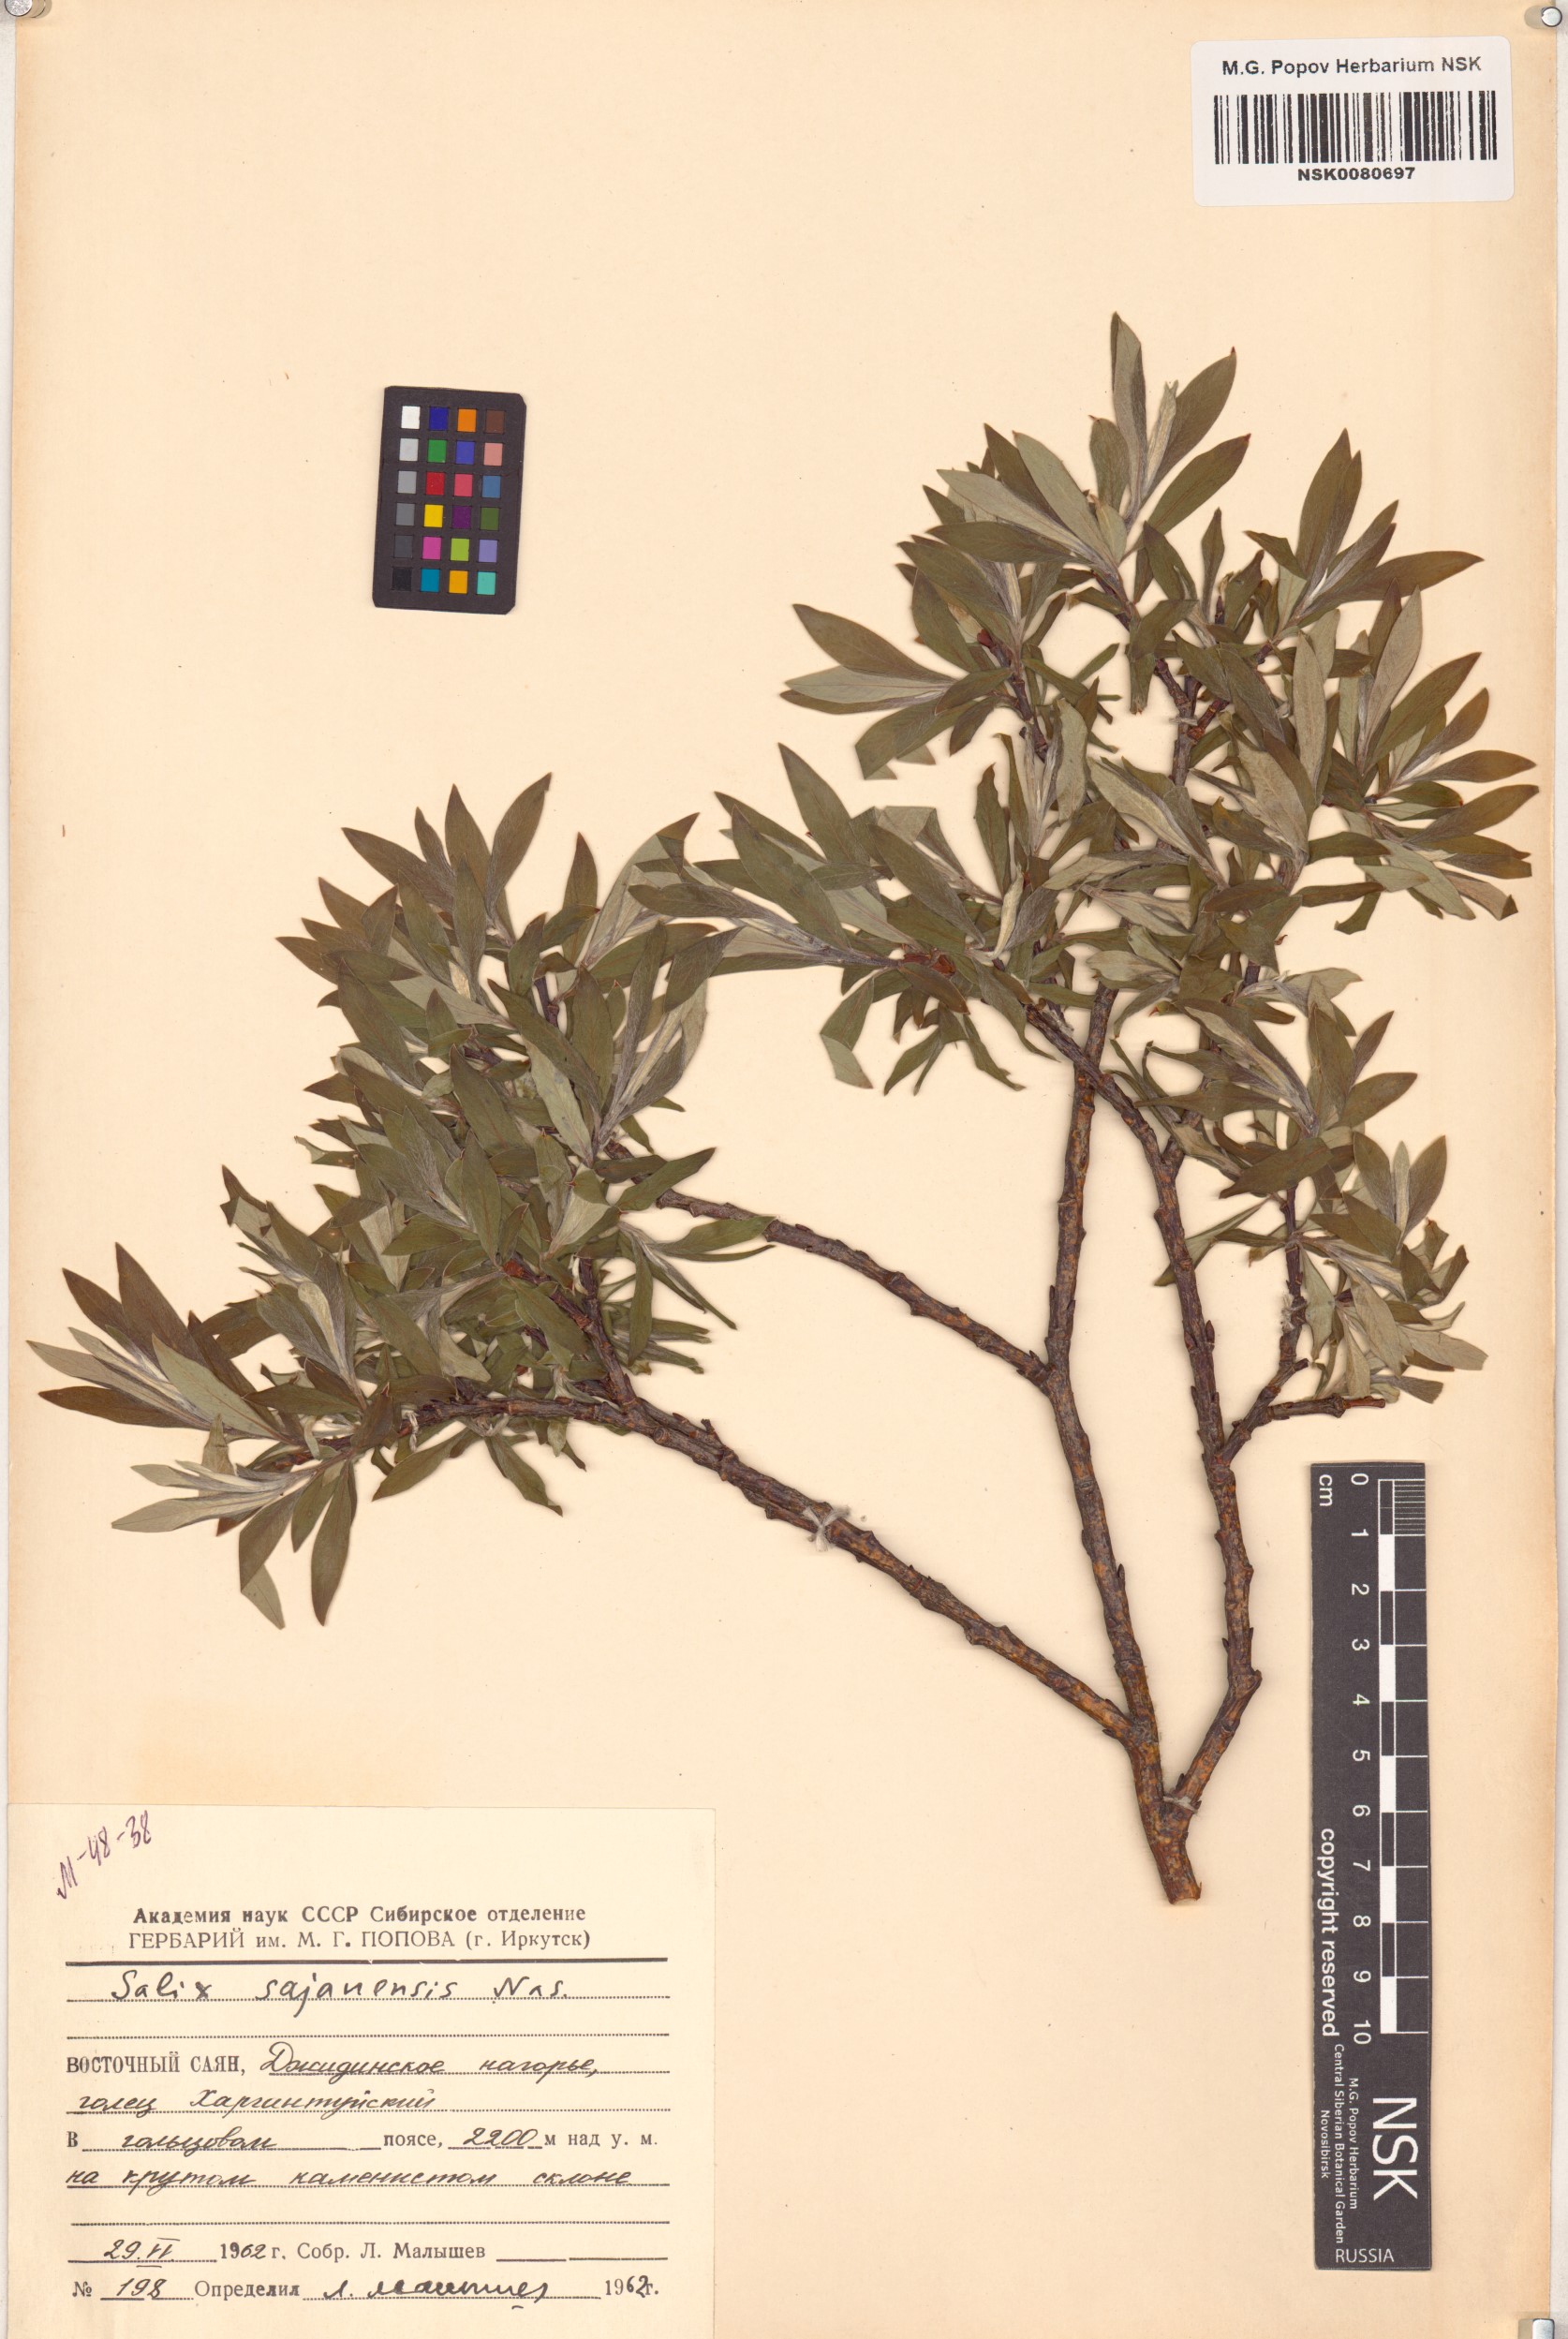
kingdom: Plantae
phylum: Tracheophyta
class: Magnoliopsida
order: Malpighiales
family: Salicaceae
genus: Salix
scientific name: Salix sajanensis
